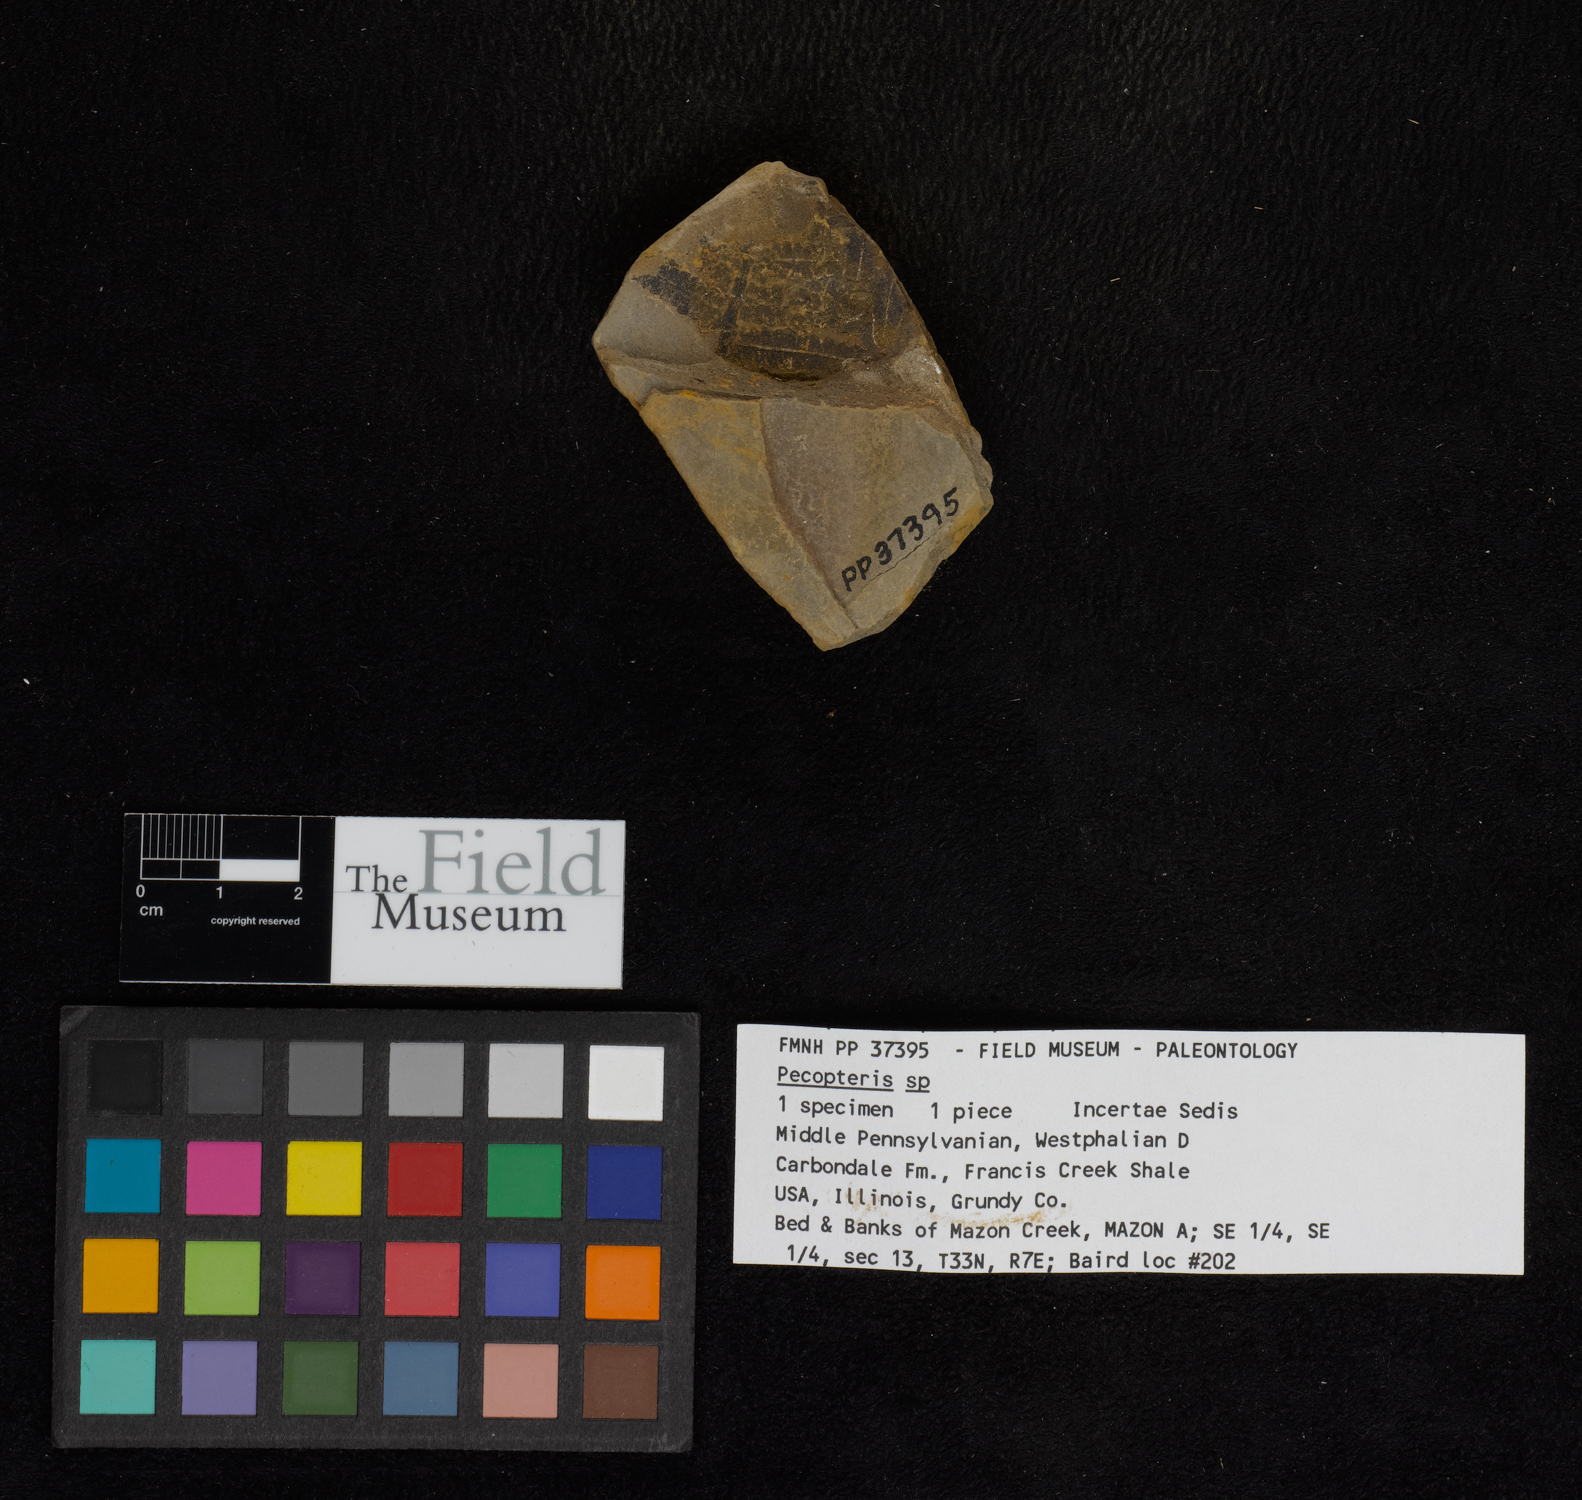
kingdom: Plantae
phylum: Tracheophyta
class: Polypodiopsida
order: Marattiales
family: Asterothecaceae
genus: Pecopteris
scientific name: Pecopteris
